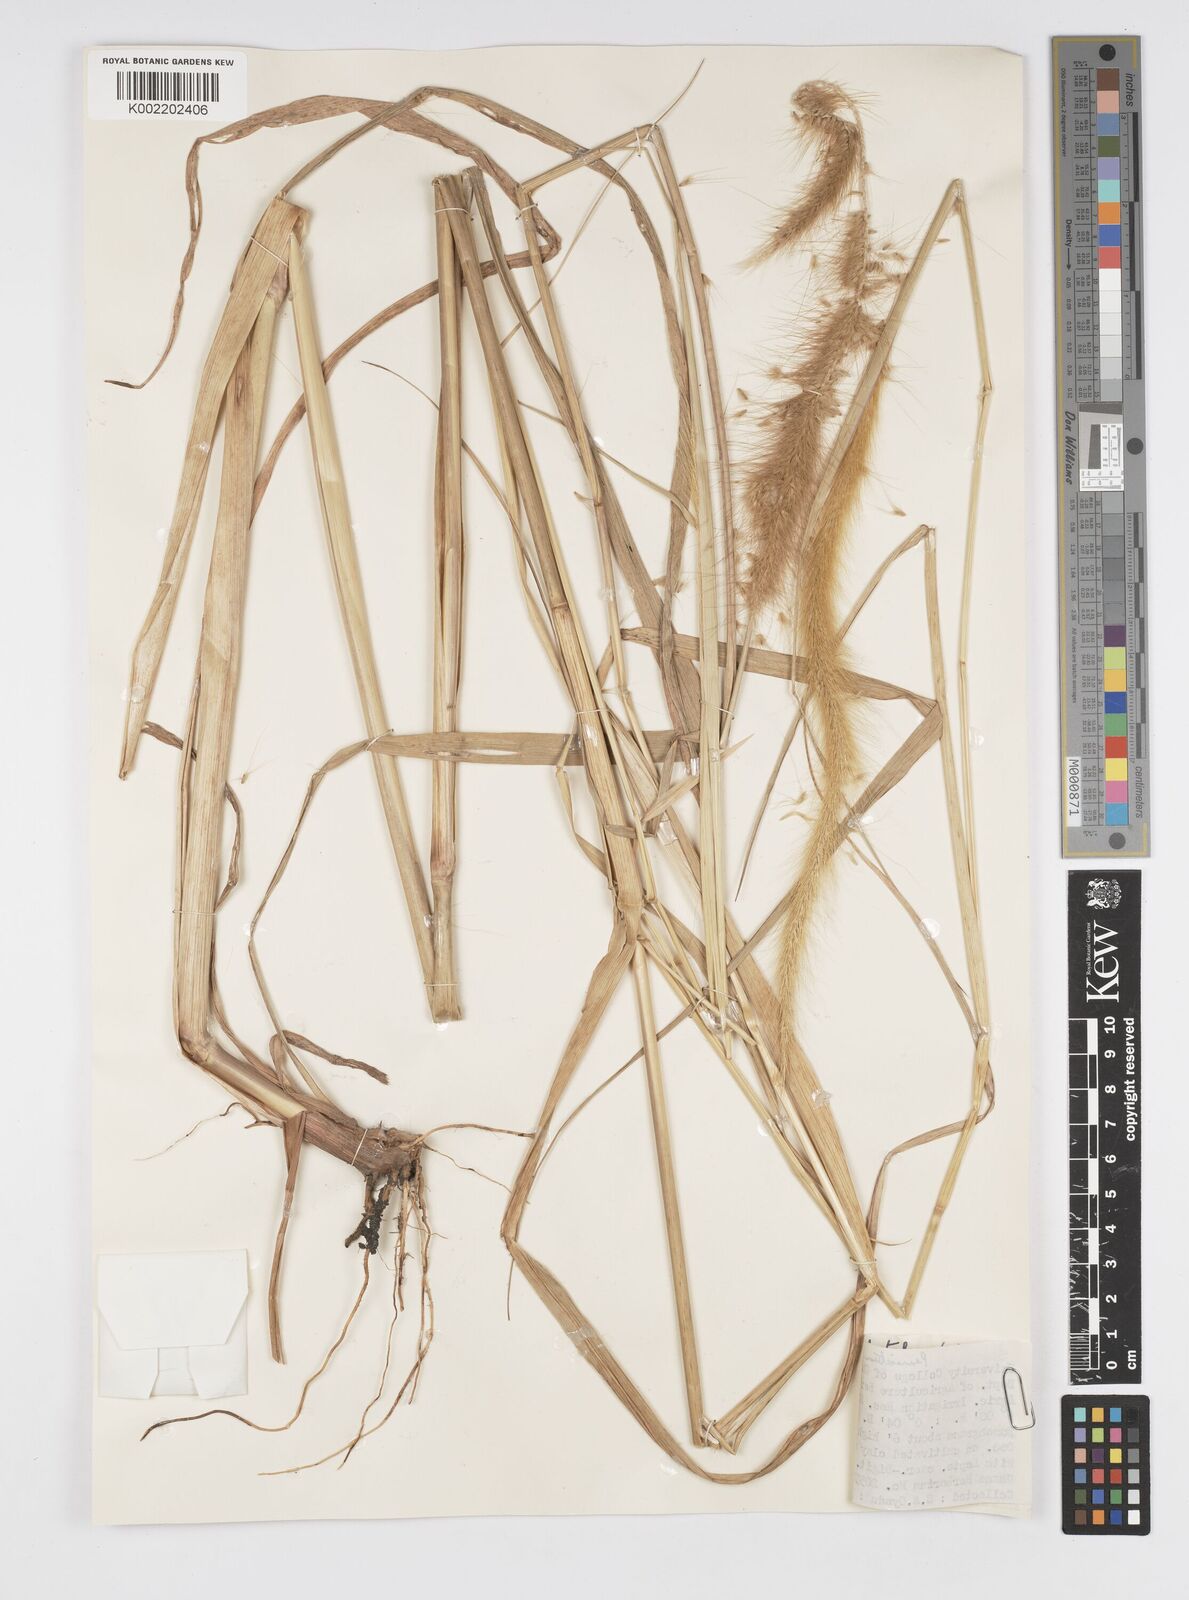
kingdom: Plantae
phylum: Tracheophyta
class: Liliopsida
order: Poales
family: Poaceae
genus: Setaria
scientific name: Setaria parviflora
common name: Knotroot bristle-grass
